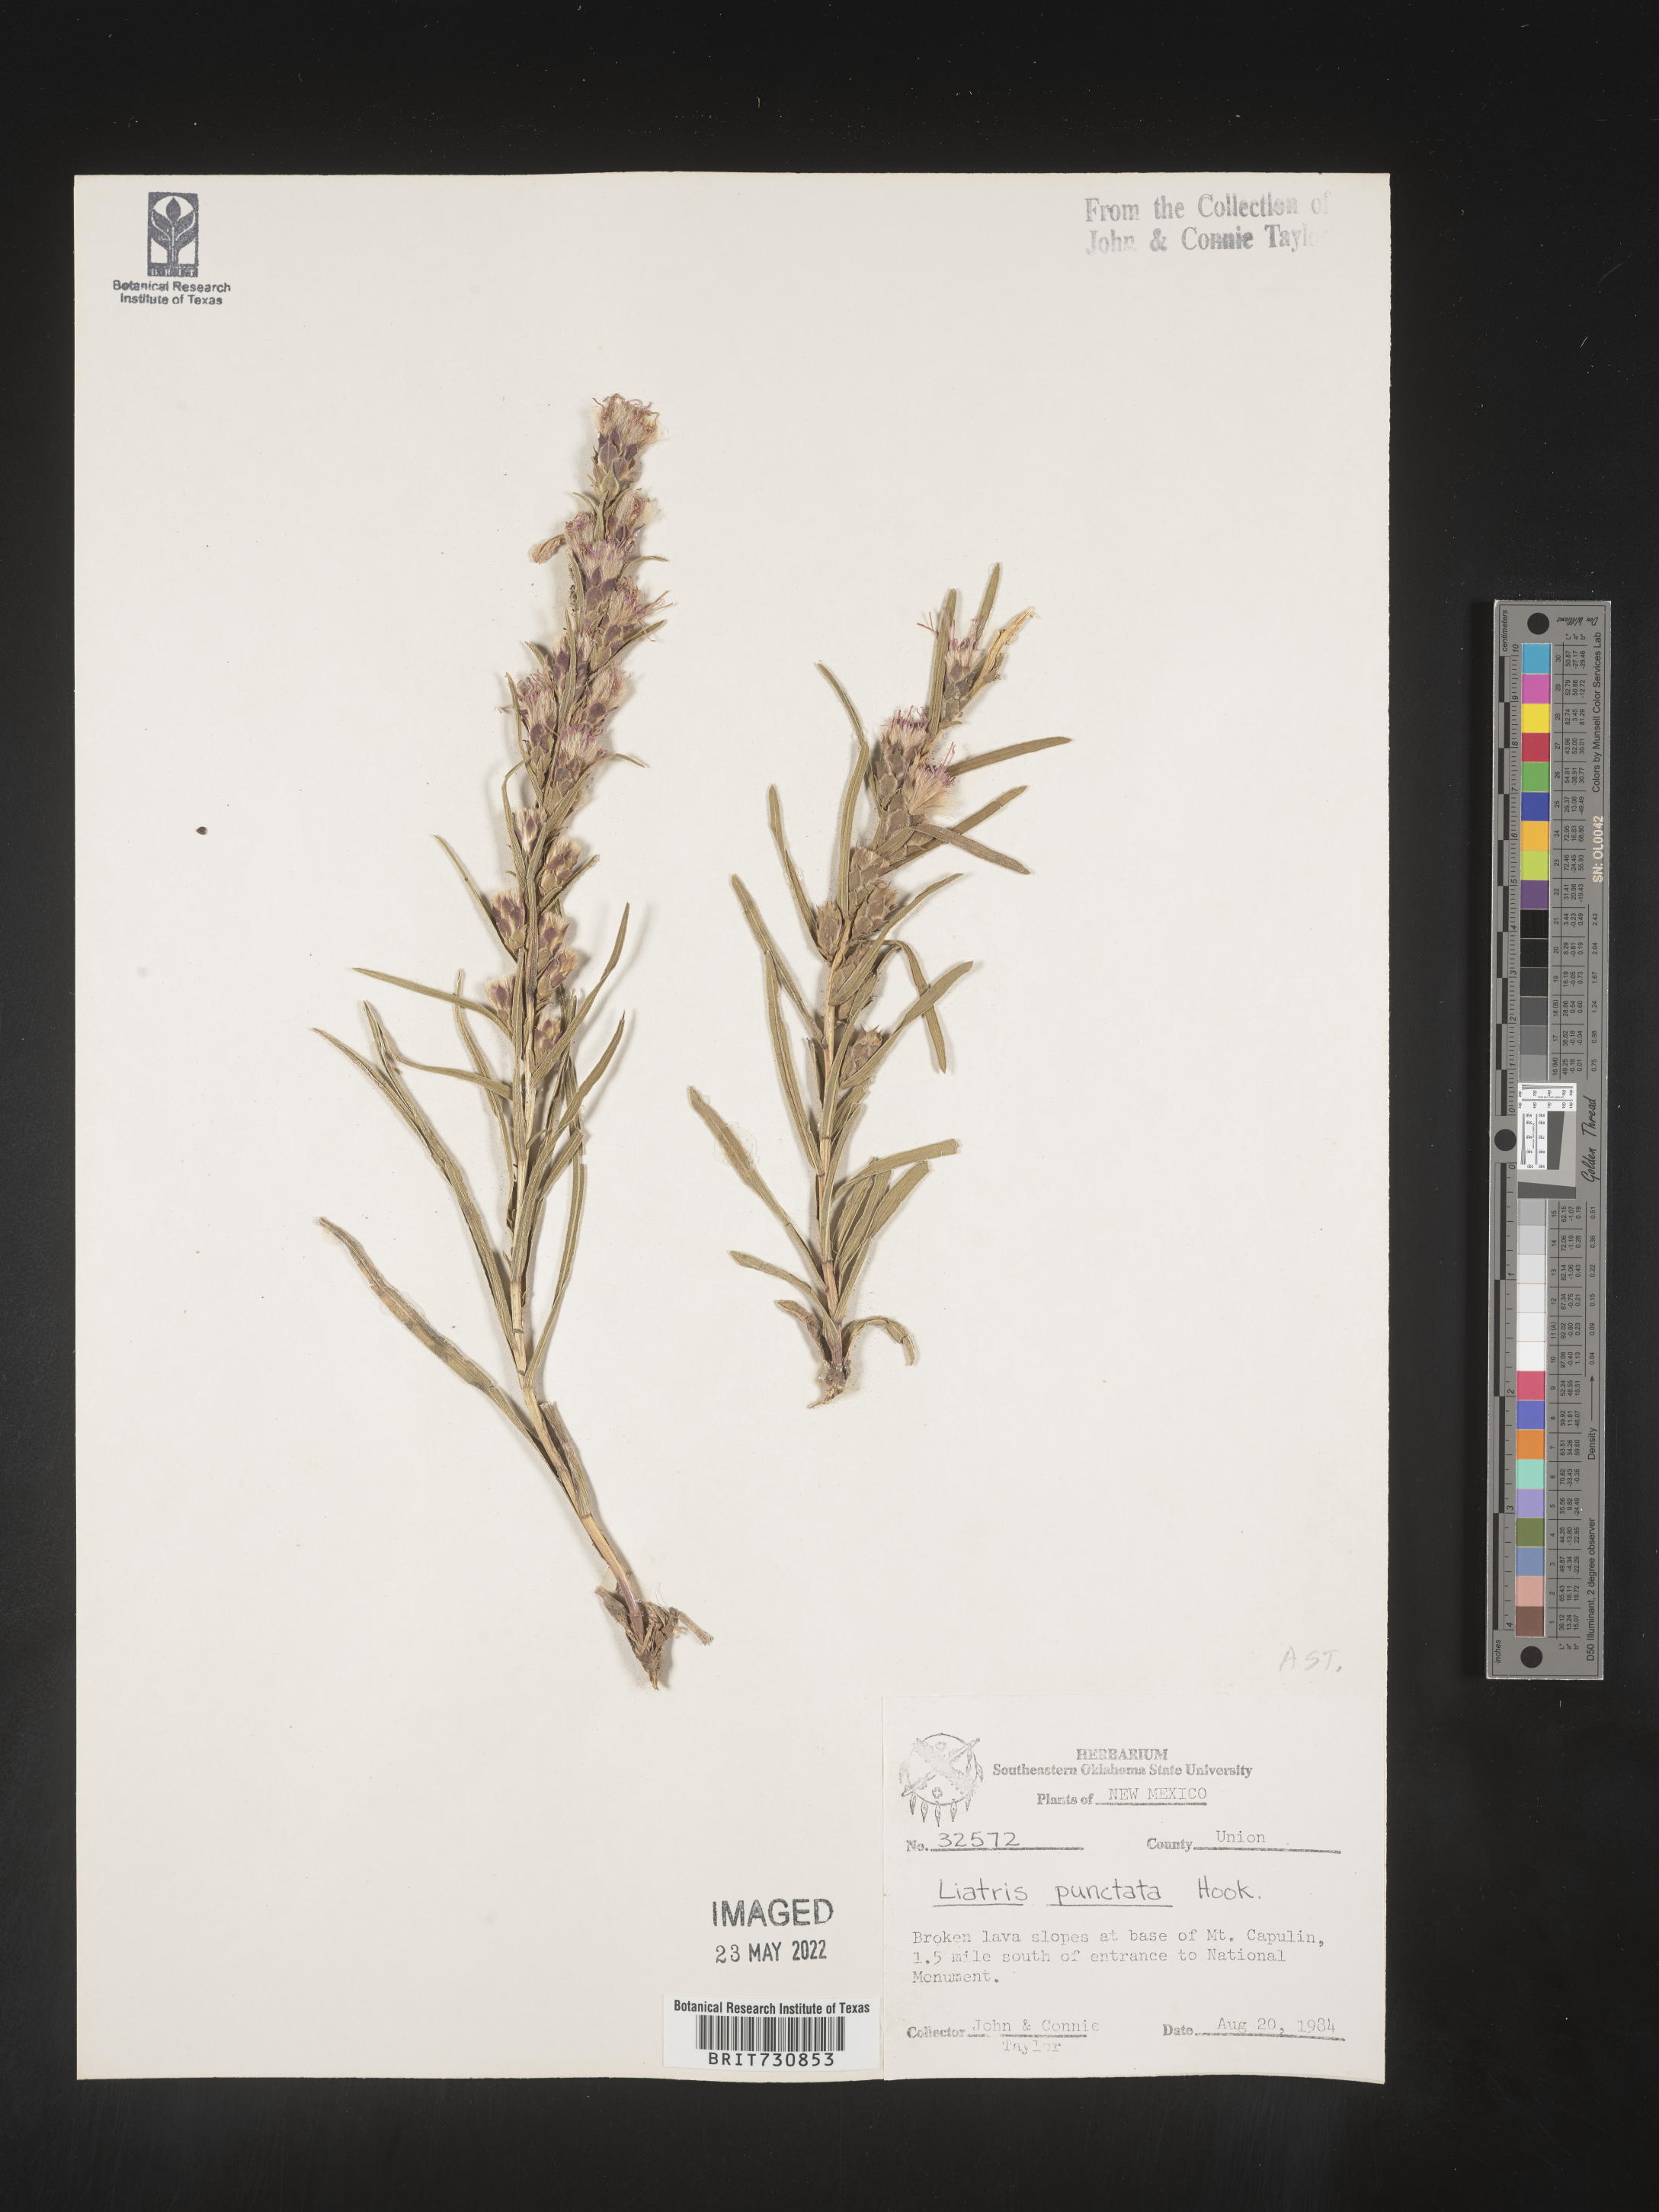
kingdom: Plantae
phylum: Tracheophyta
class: Magnoliopsida
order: Asterales
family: Asteraceae
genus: Liatris
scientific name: Liatris punctata
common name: Dotted gayfeather
